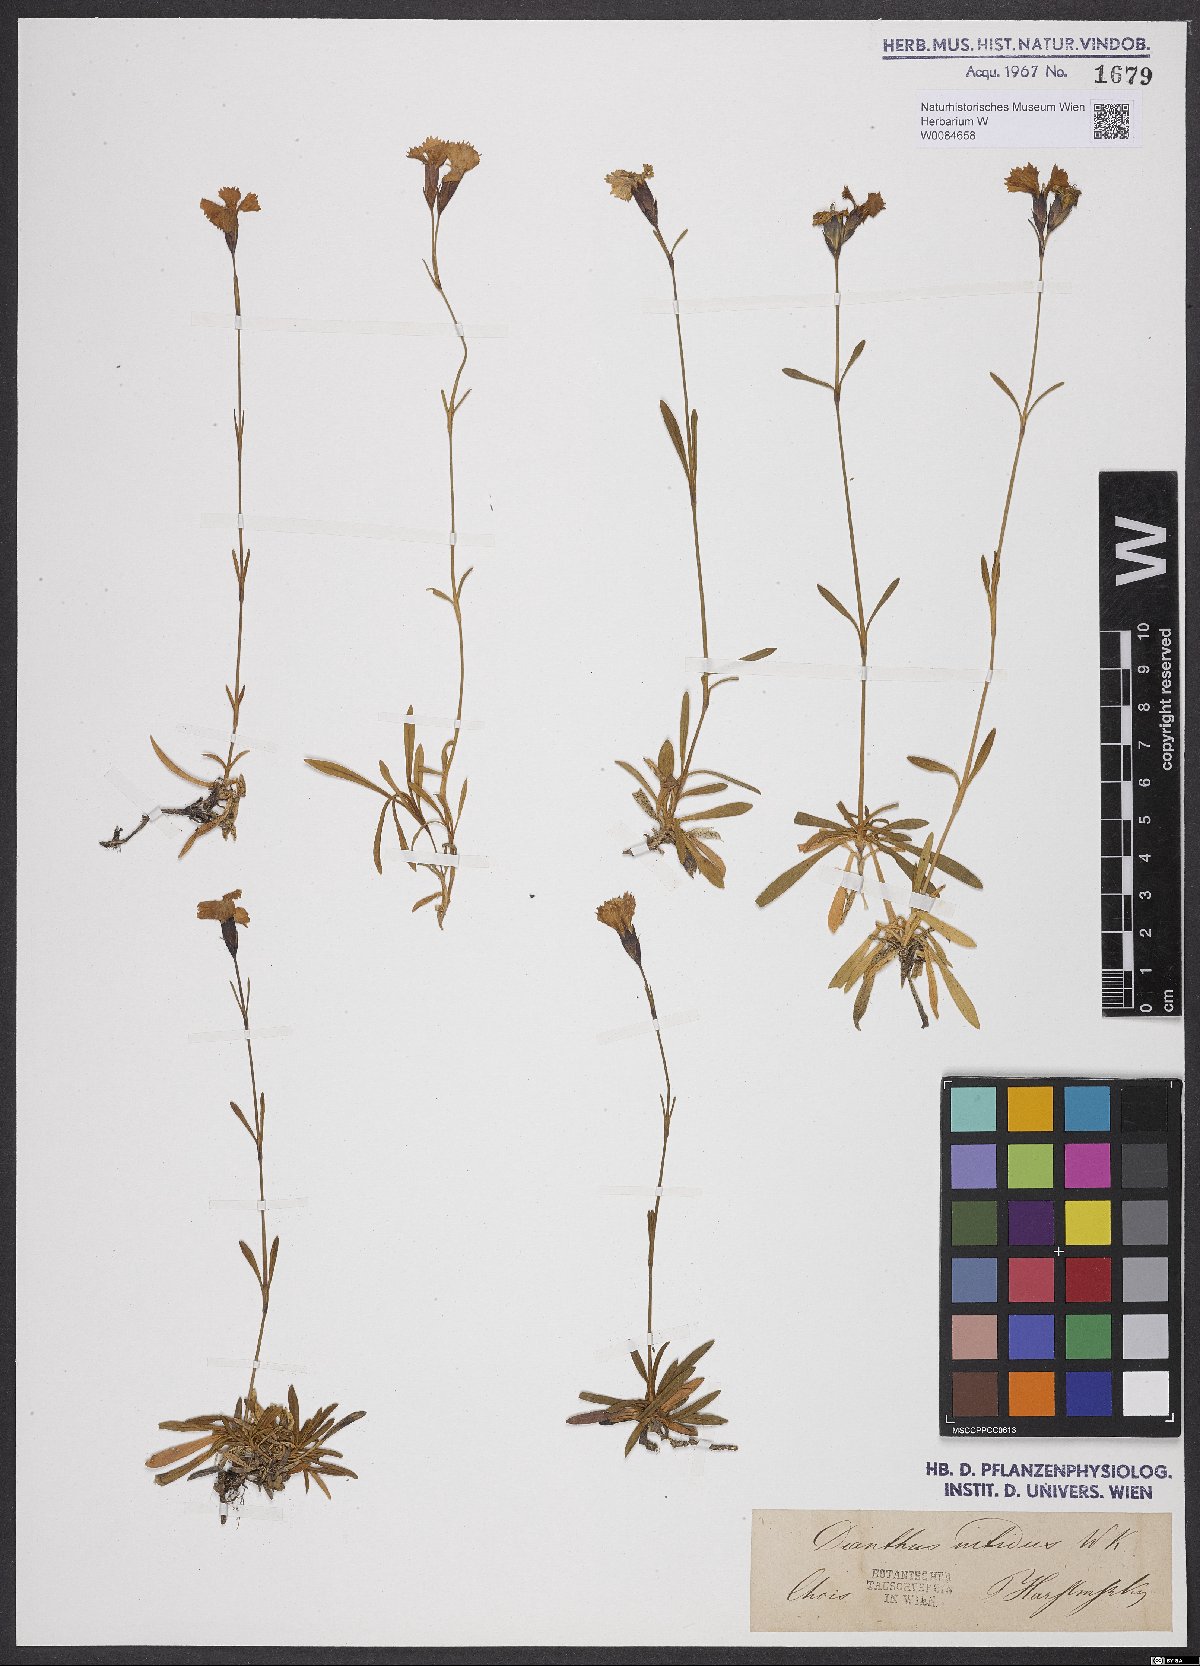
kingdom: Plantae
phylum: Tracheophyta
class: Magnoliopsida
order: Caryophyllales
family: Caryophyllaceae
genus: Dianthus
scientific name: Dianthus nitidus
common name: Carpathian glossy pink
